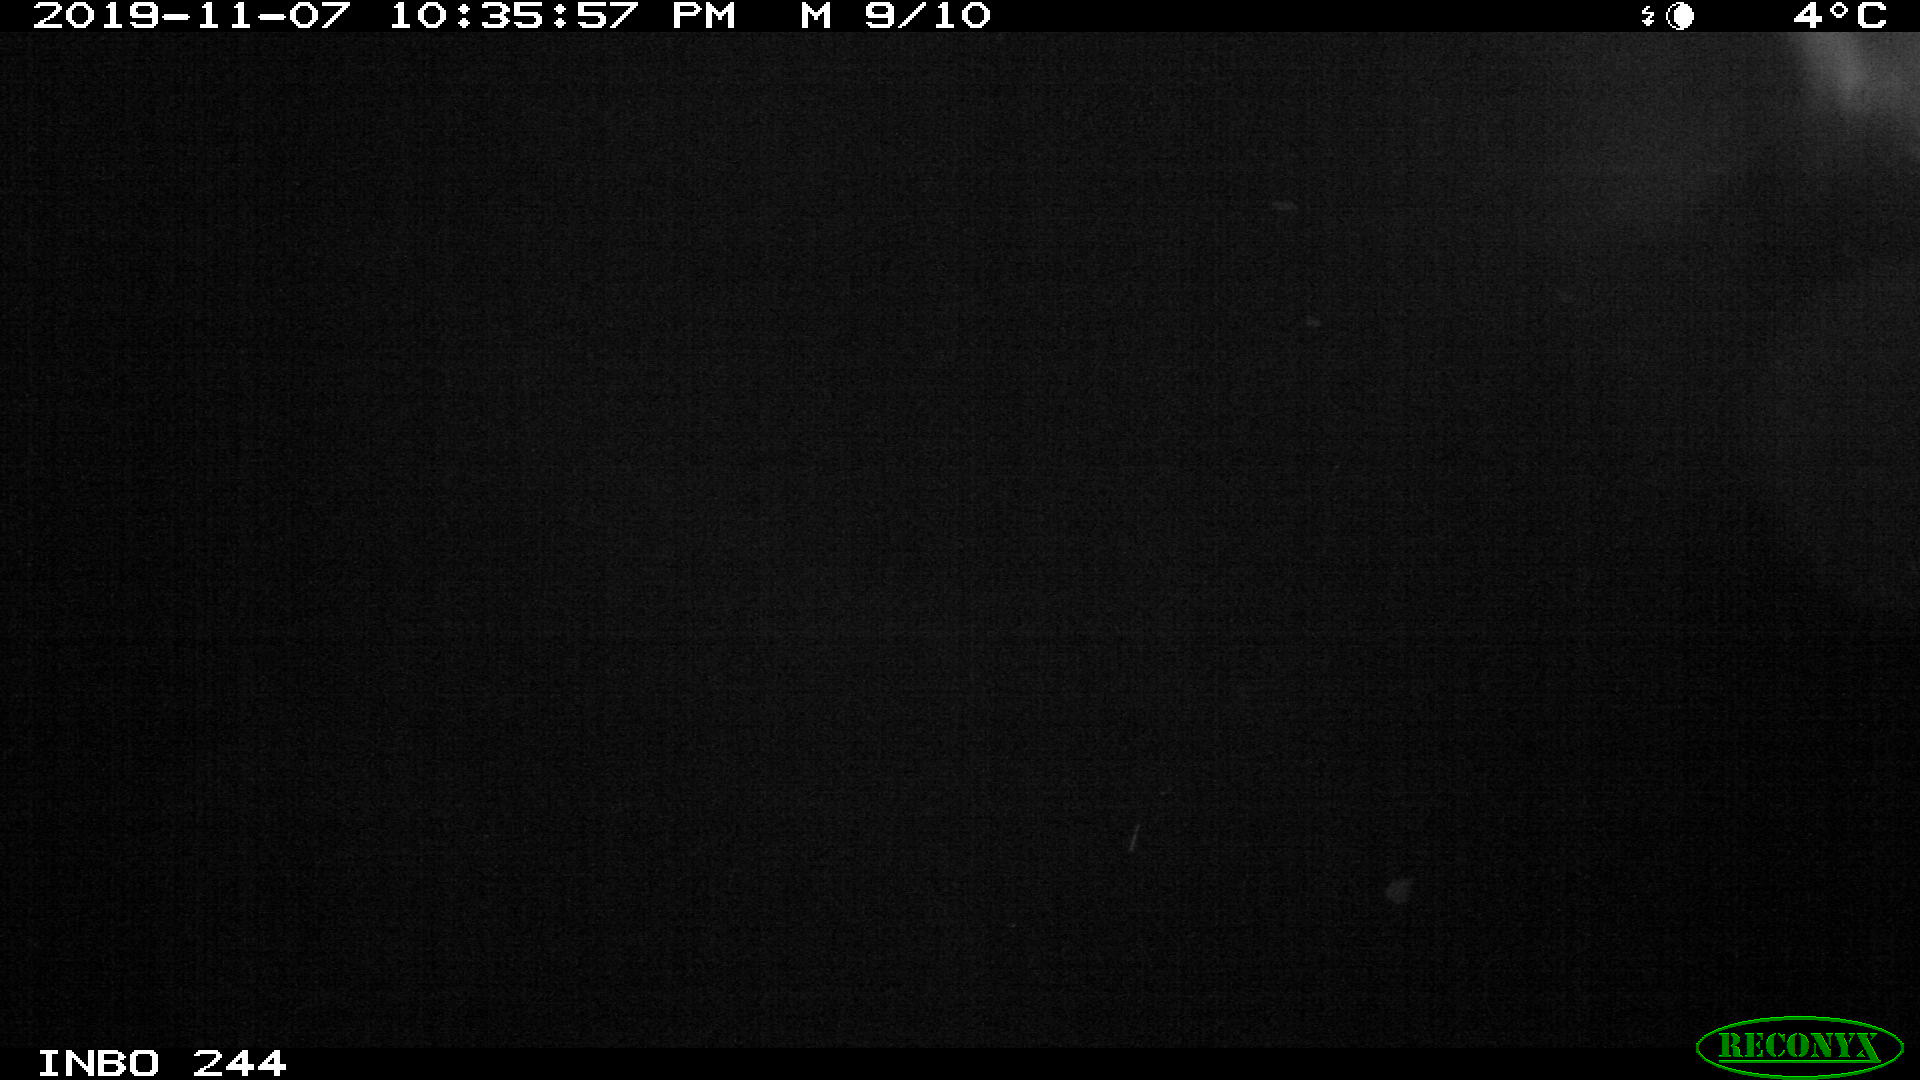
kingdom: Animalia
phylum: Chordata
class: Aves
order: Anseriformes
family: Anatidae
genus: Anas
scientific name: Anas platyrhynchos
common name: Mallard
